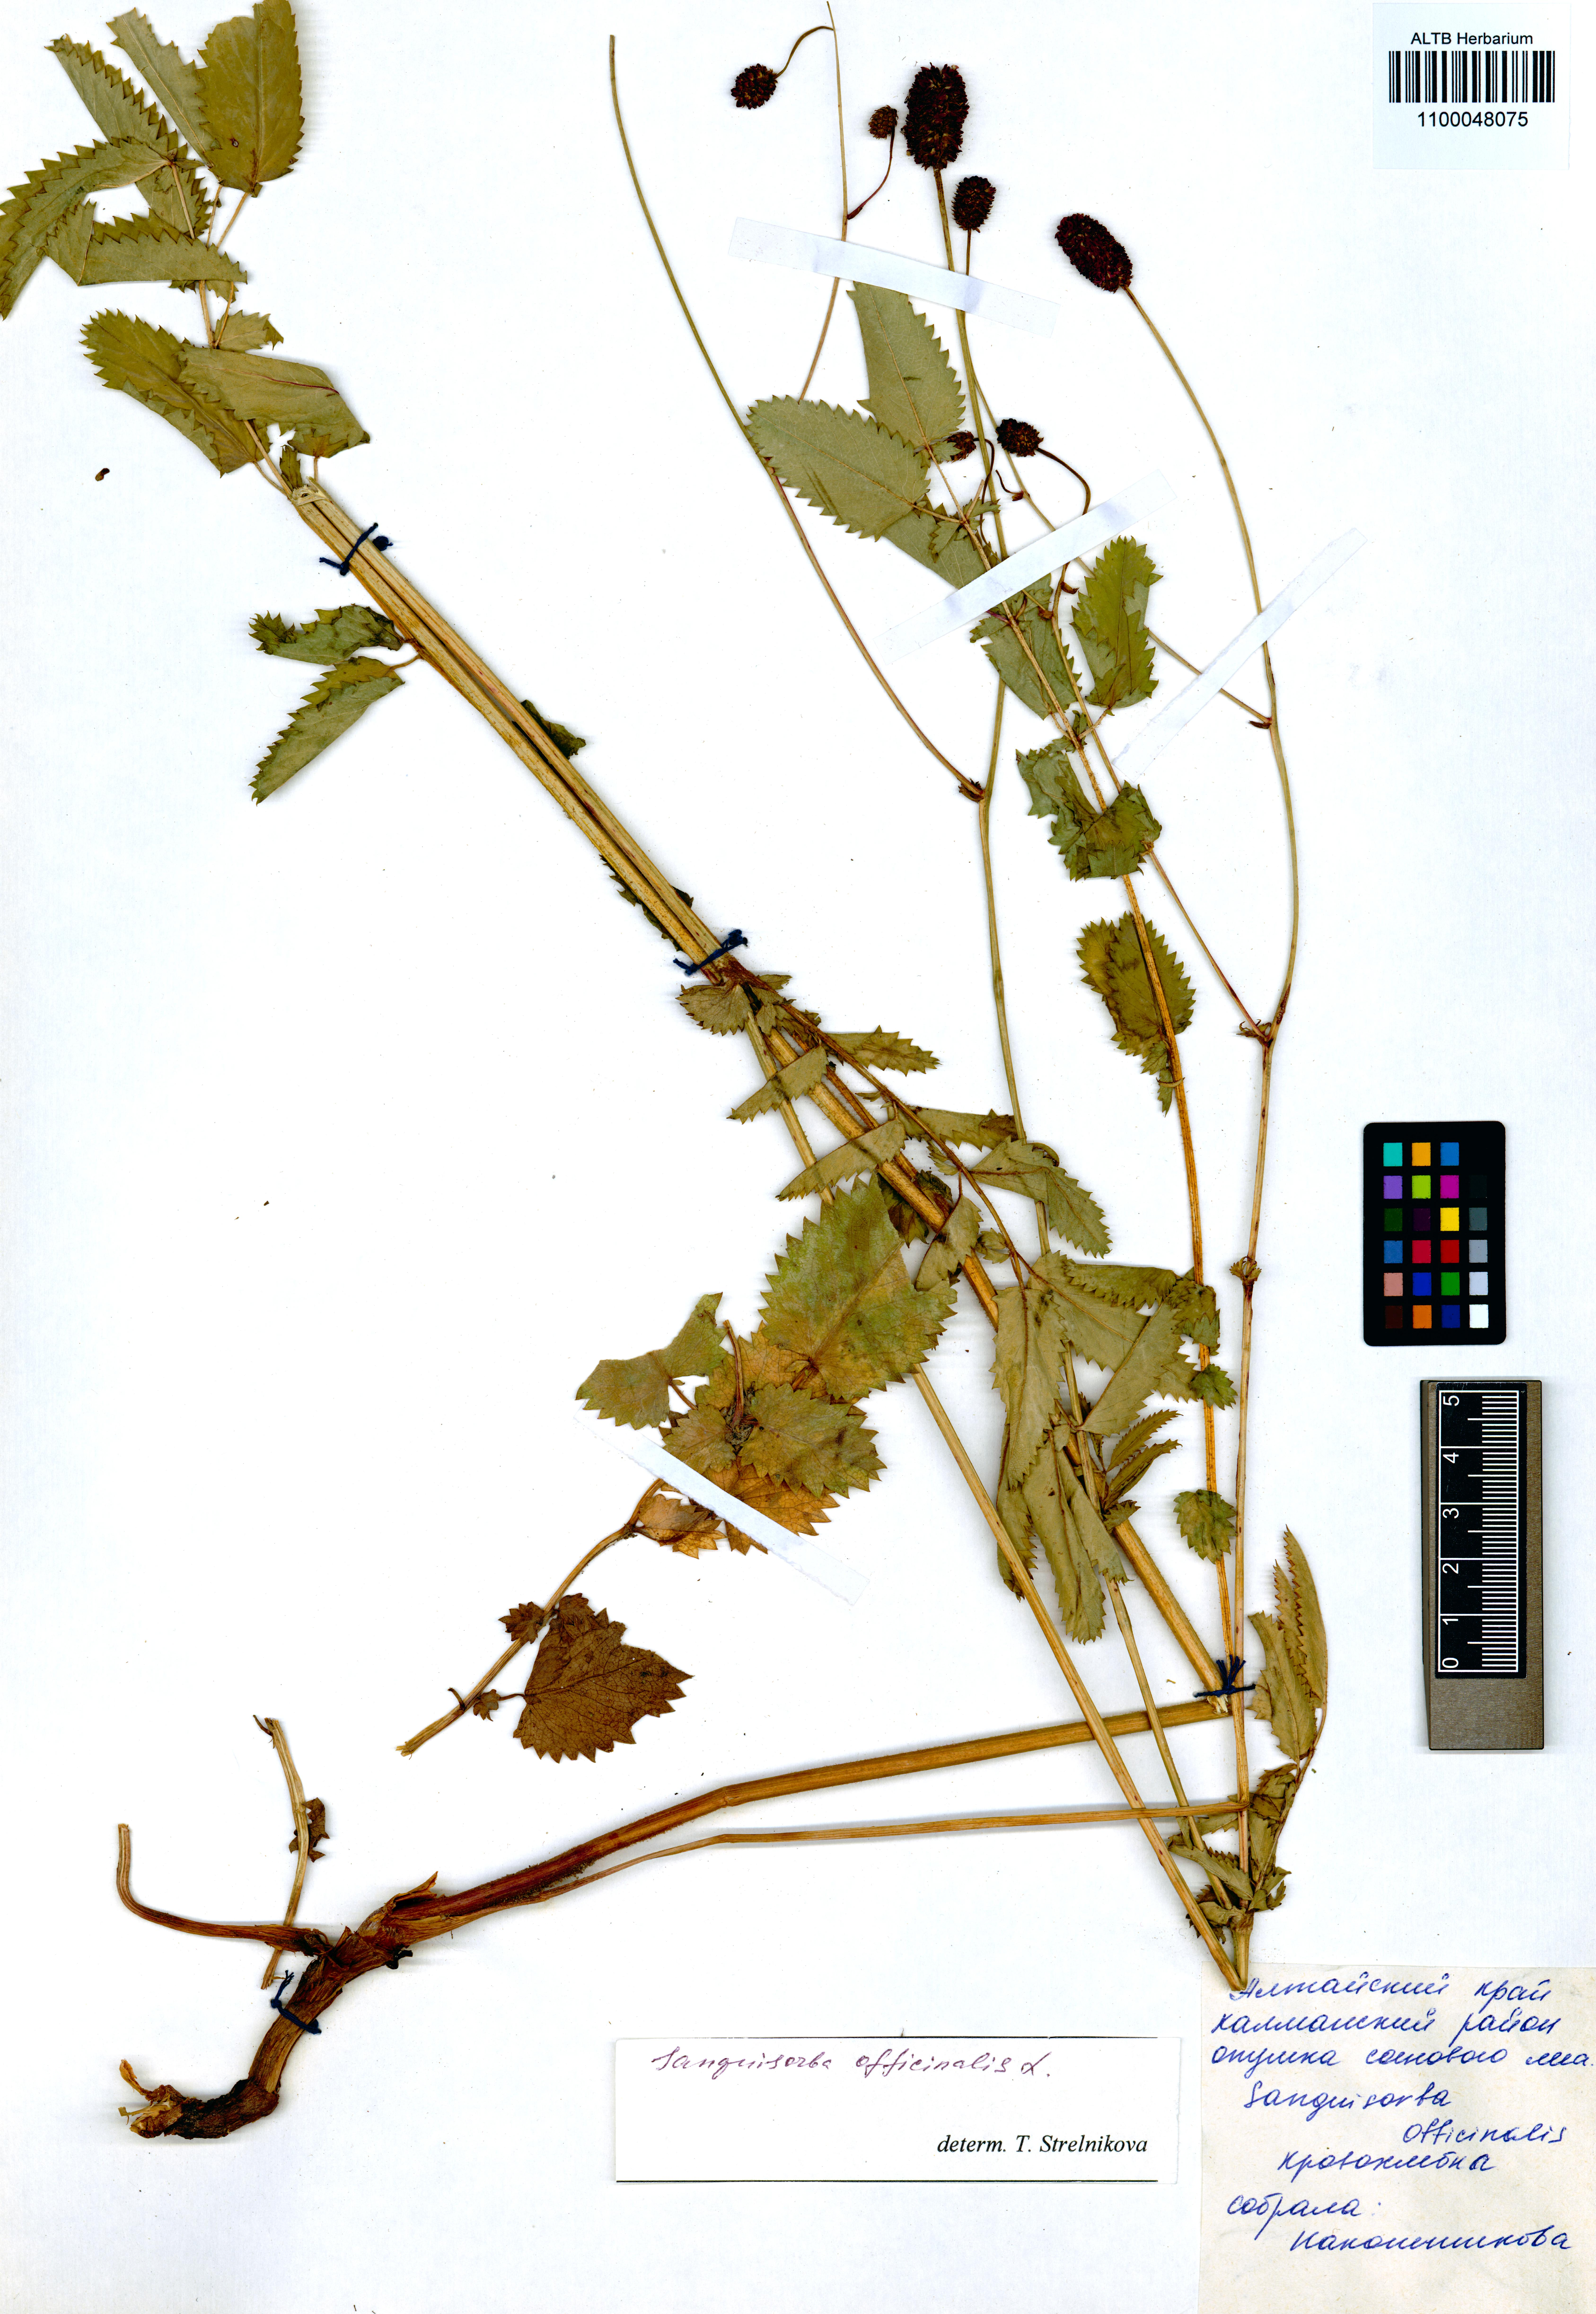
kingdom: Plantae
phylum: Tracheophyta
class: Magnoliopsida
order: Rosales
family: Rosaceae
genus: Sanguisorba
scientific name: Sanguisorba officinalis
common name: Great burnet
